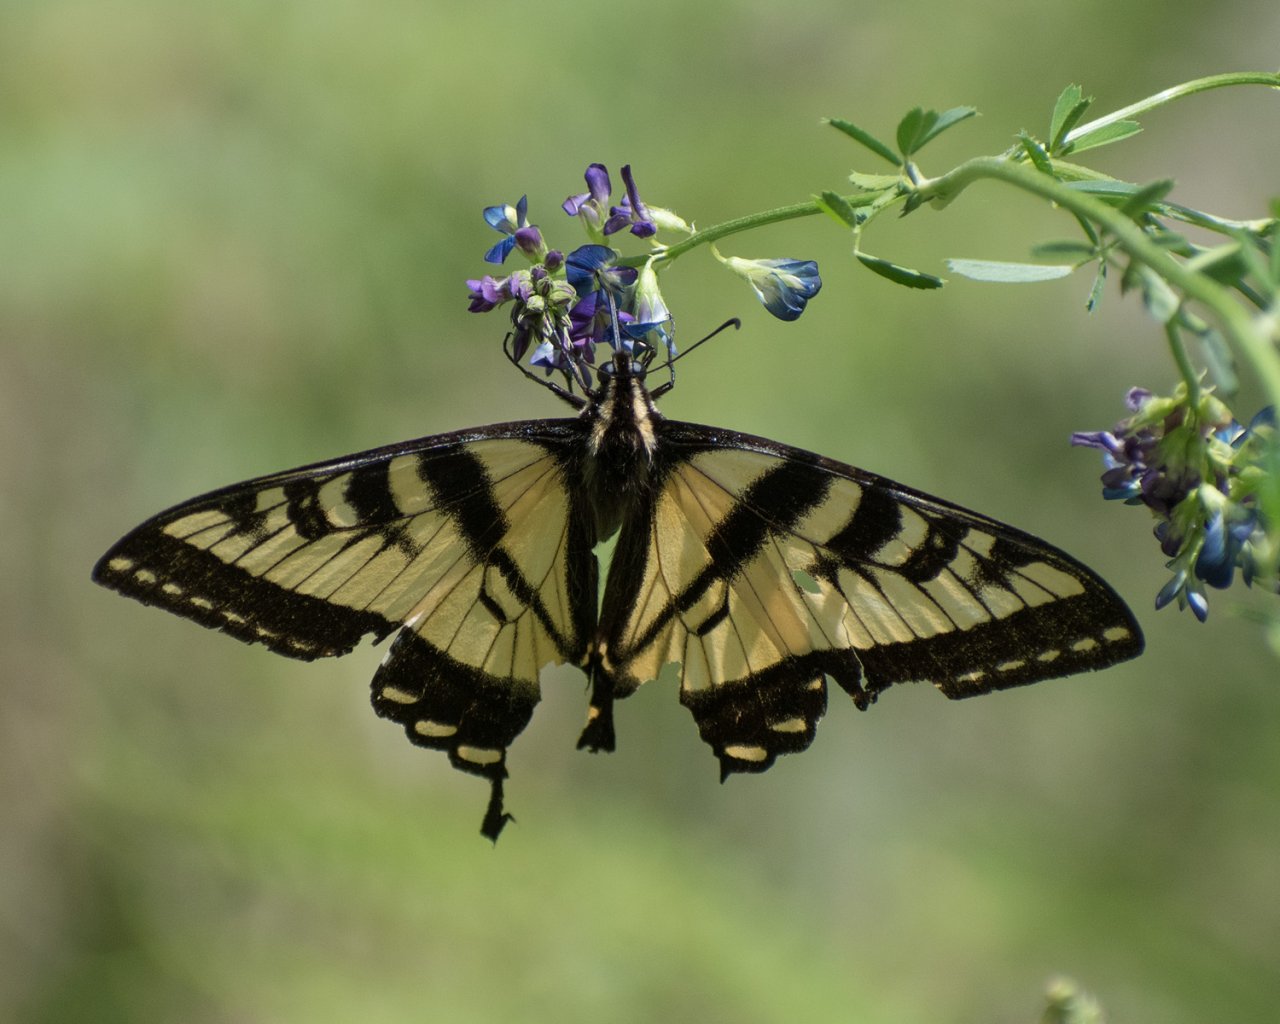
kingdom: Animalia
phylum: Arthropoda
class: Insecta
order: Lepidoptera
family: Papilionidae
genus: Pterourus
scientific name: Pterourus rutulus
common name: Western Tiger Swallowtail
